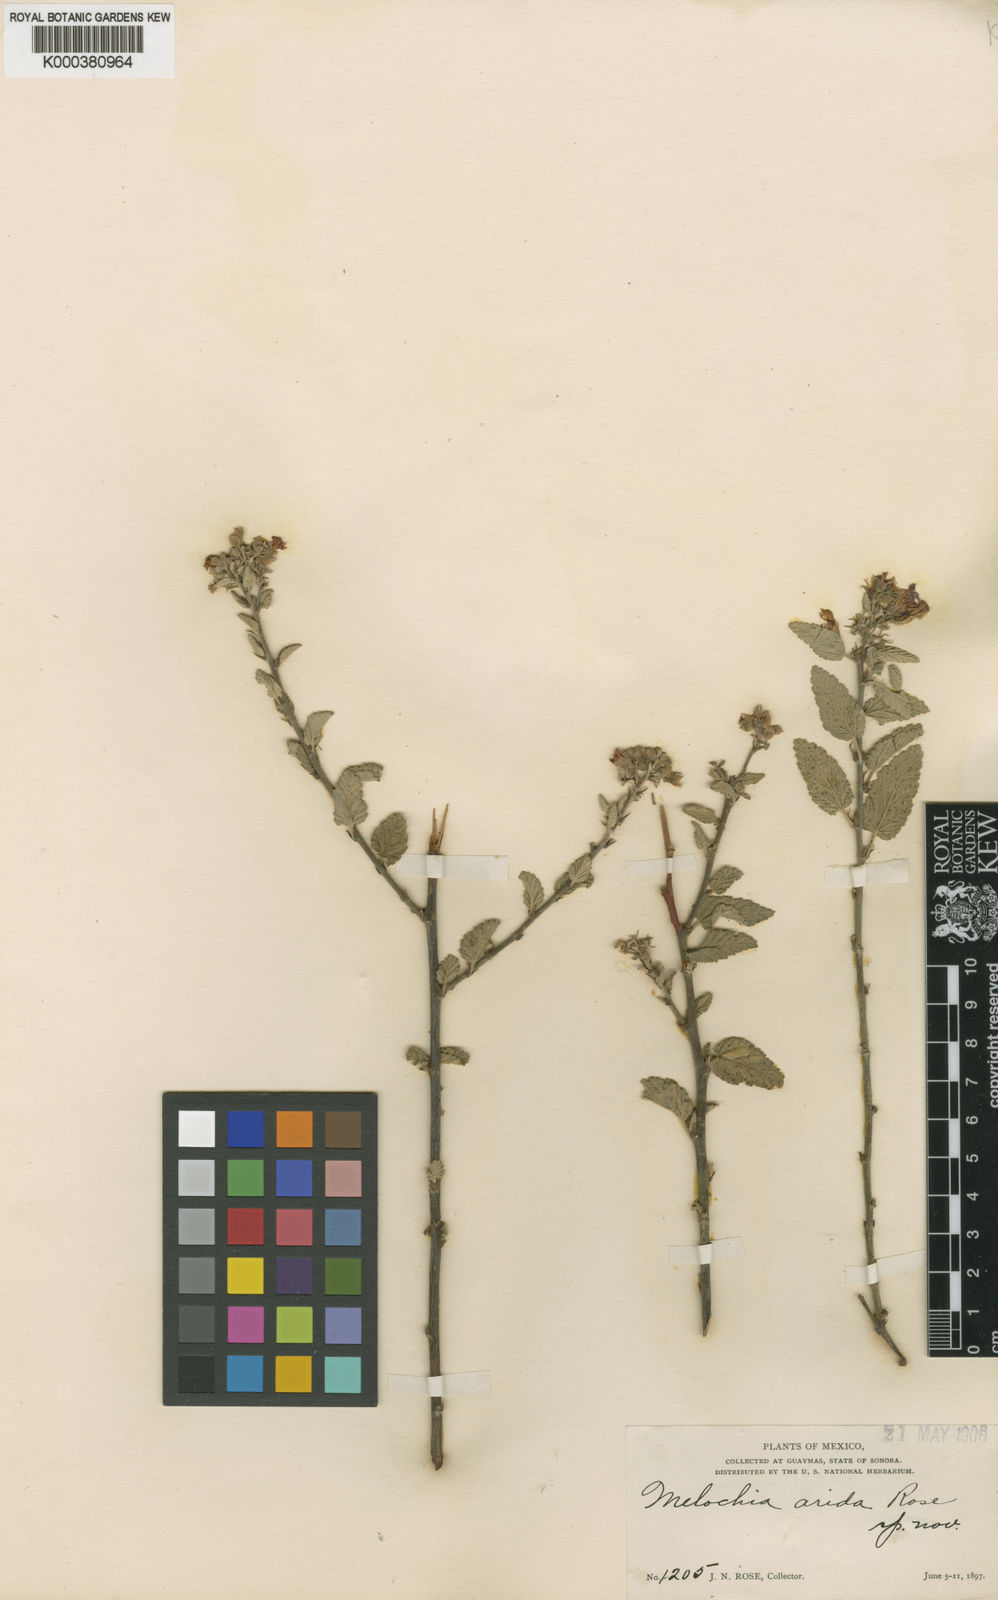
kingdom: Plantae
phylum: Tracheophyta
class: Magnoliopsida
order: Malvales
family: Malvaceae
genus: Melochia
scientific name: Melochia tomentosa
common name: Black torch
